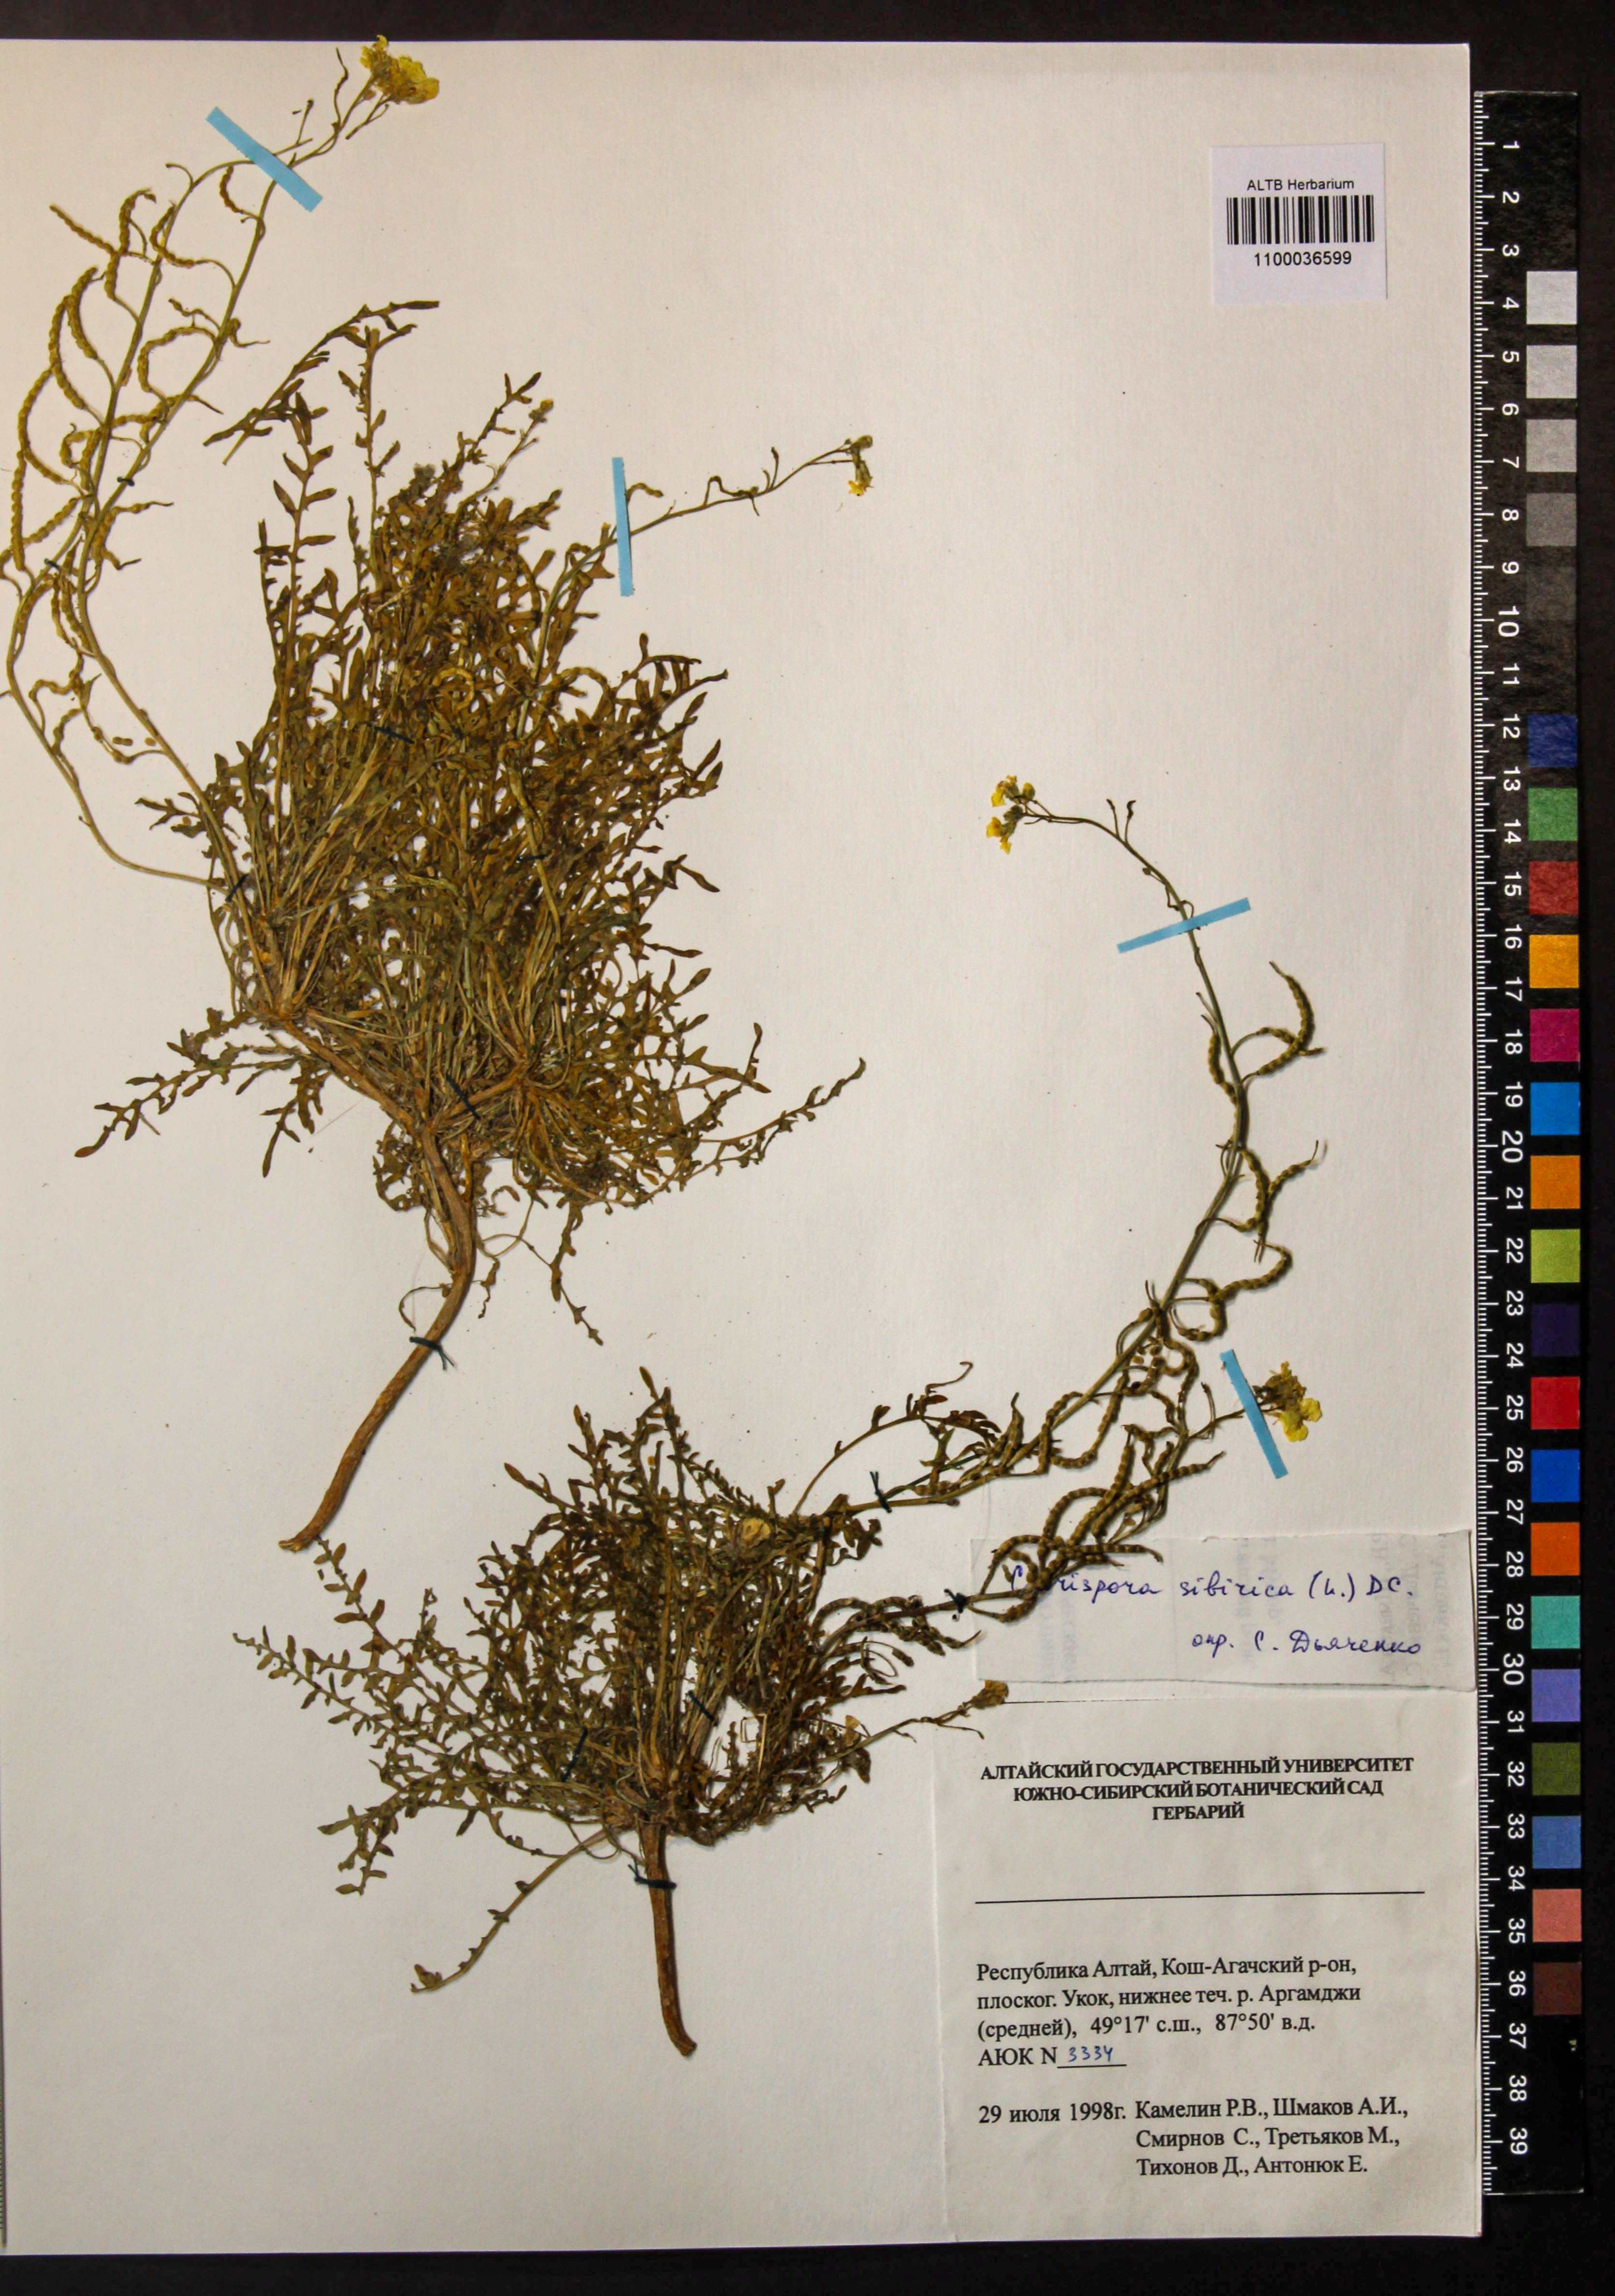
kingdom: Plantae
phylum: Tracheophyta
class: Magnoliopsida
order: Brassicales
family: Brassicaceae
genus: Chorispora
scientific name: Chorispora sibirica
